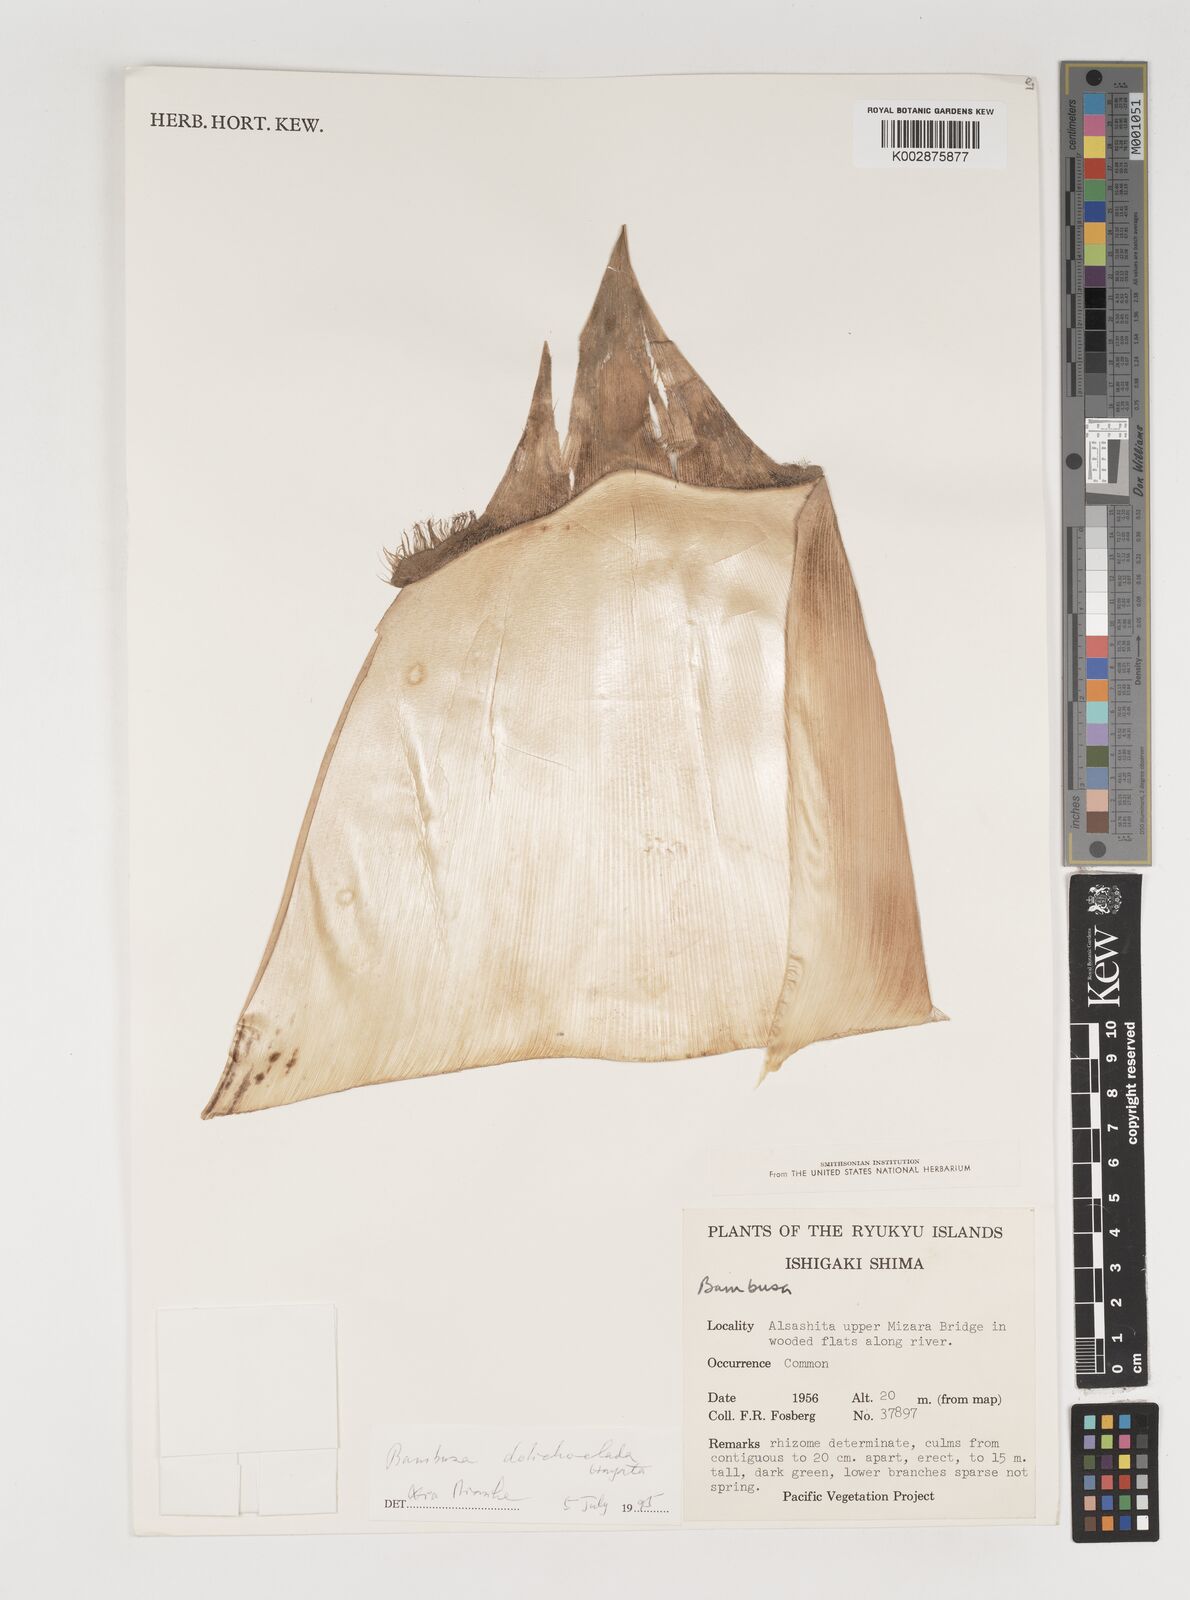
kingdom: Plantae
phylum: Tracheophyta
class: Liliopsida
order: Poales
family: Poaceae
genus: Bambusa
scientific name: Bambusa dolichoclada
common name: Long-shoot bamboo
